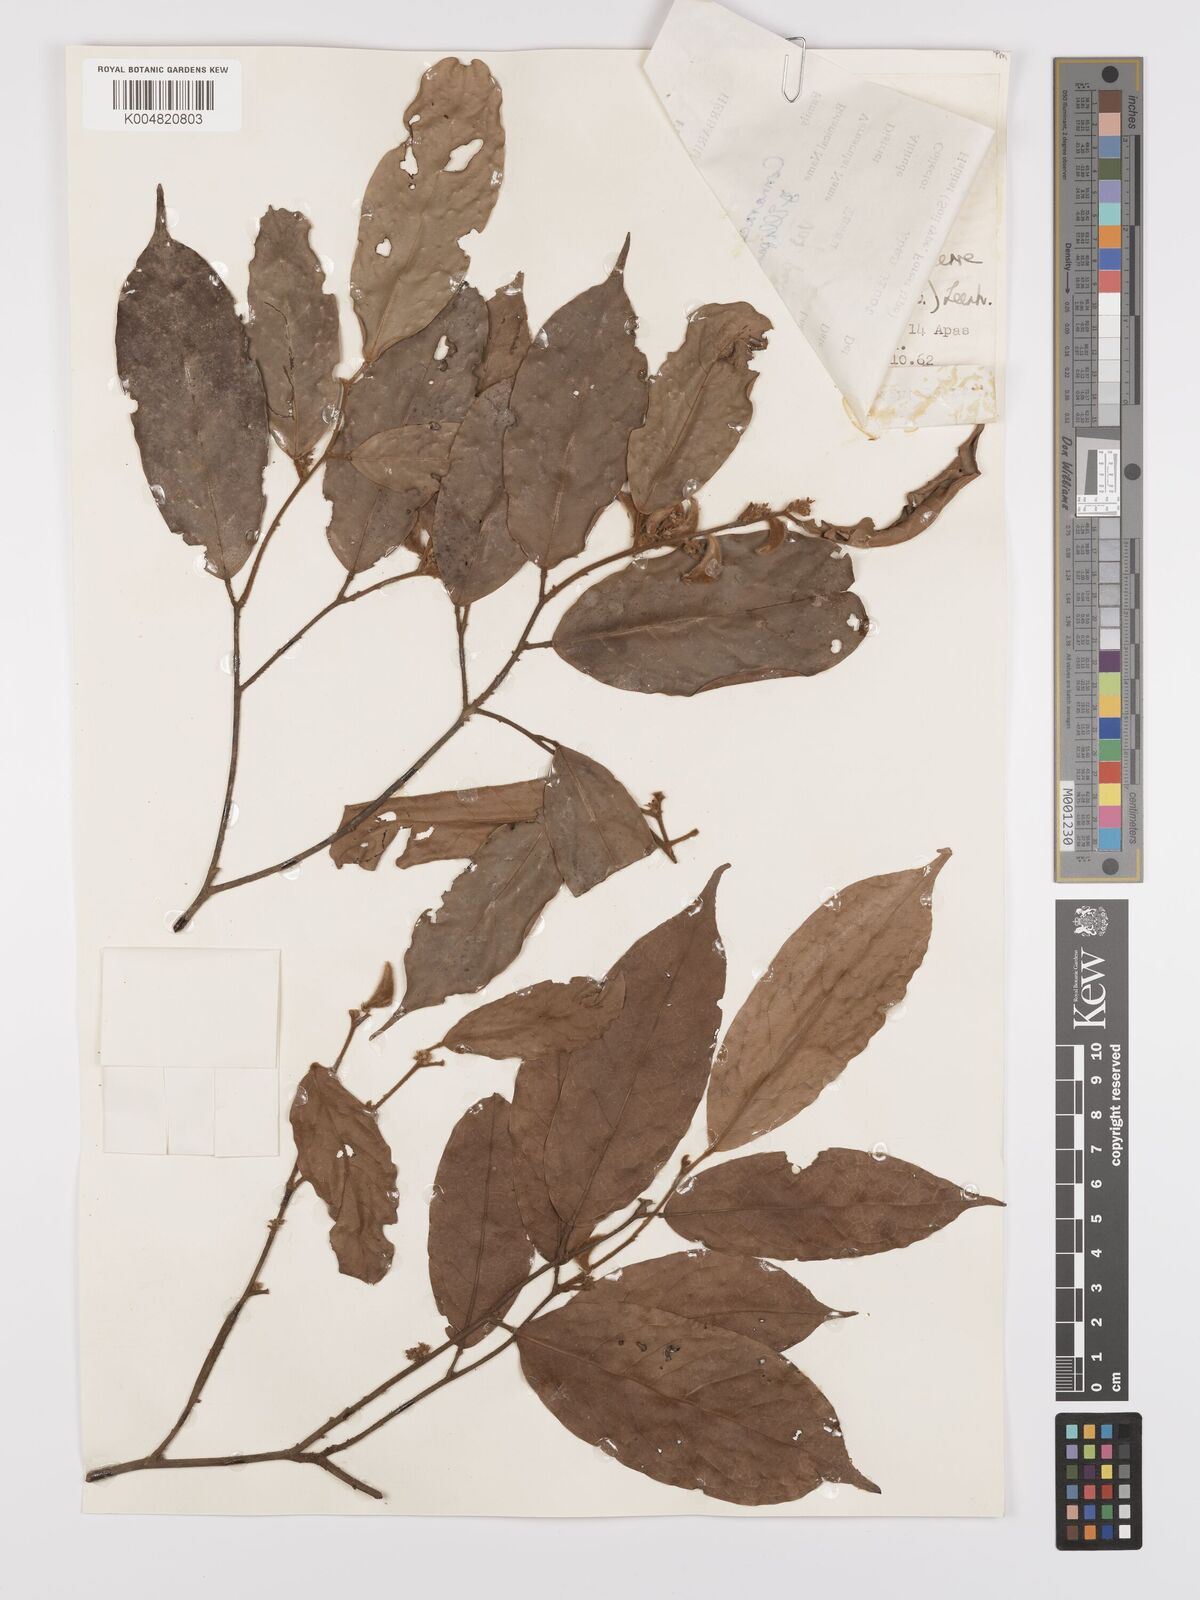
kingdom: Plantae
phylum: Tracheophyta
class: Magnoliopsida
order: Oxalidales
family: Connaraceae
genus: Ellipanthus
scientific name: Ellipanthus beccarii
